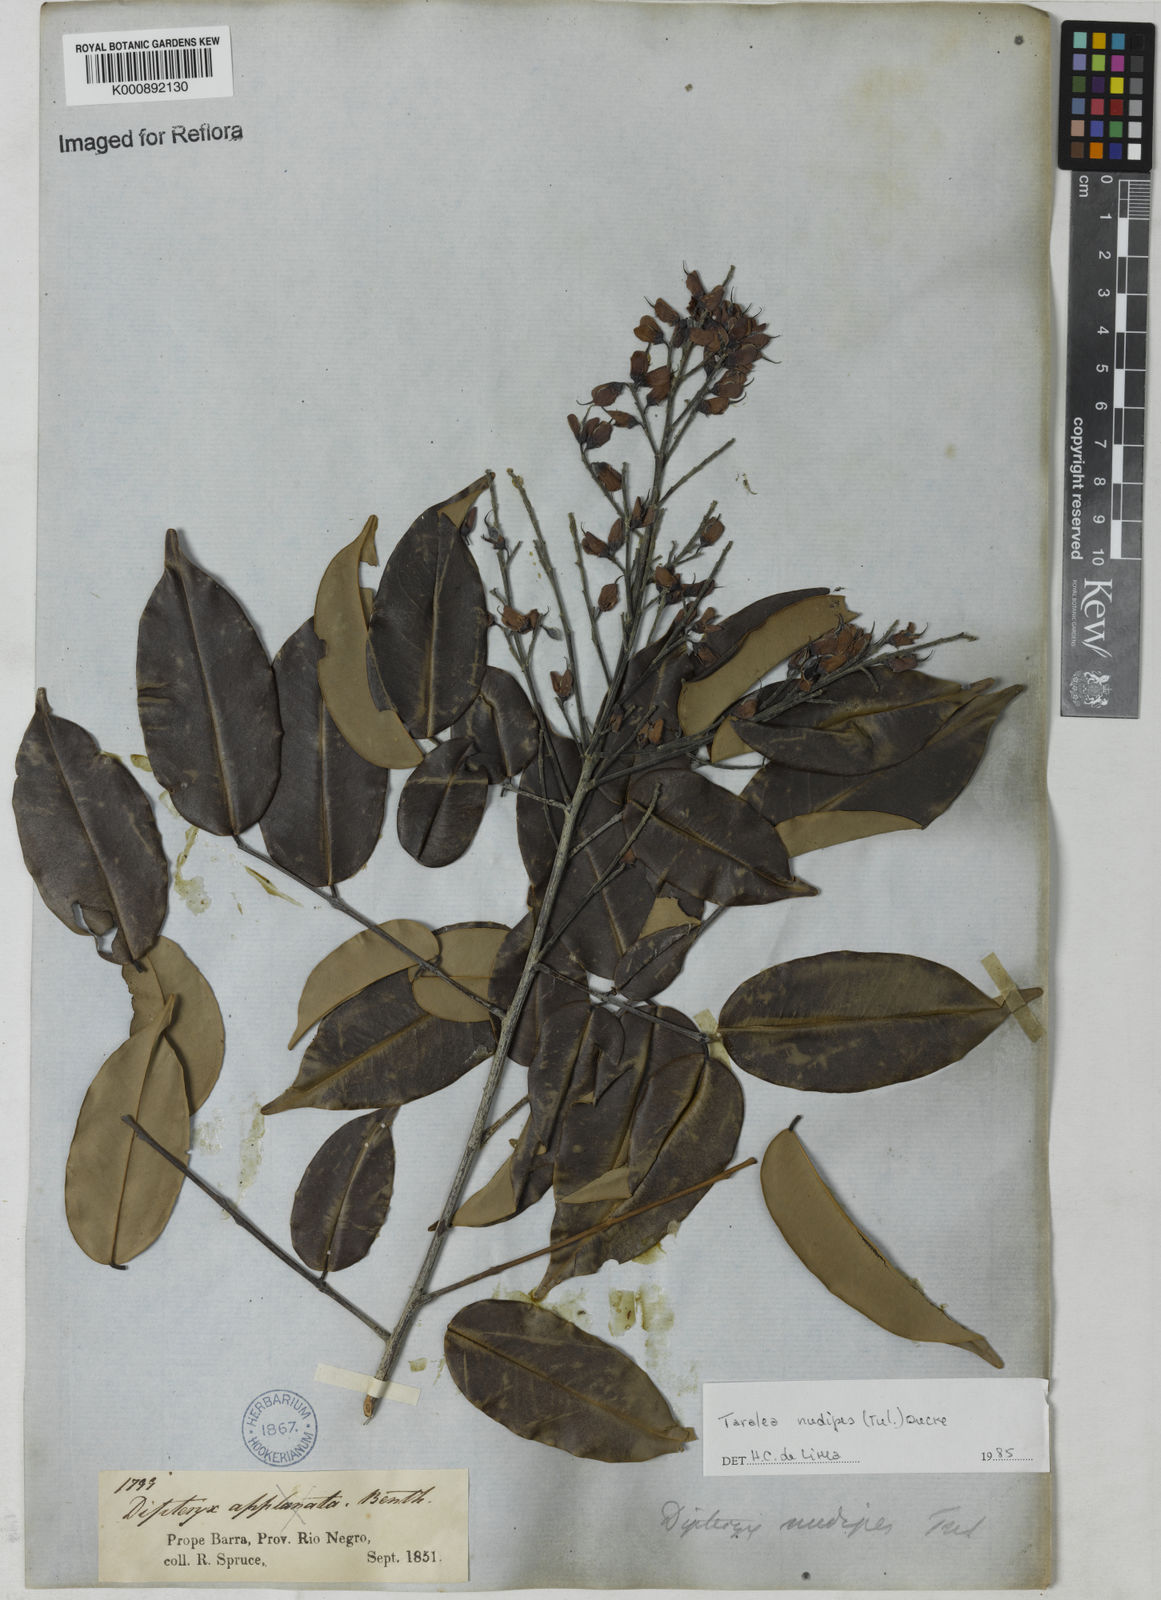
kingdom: Plantae
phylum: Tracheophyta
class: Magnoliopsida
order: Fabales
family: Fabaceae
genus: Taralea
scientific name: Taralea nudipes
